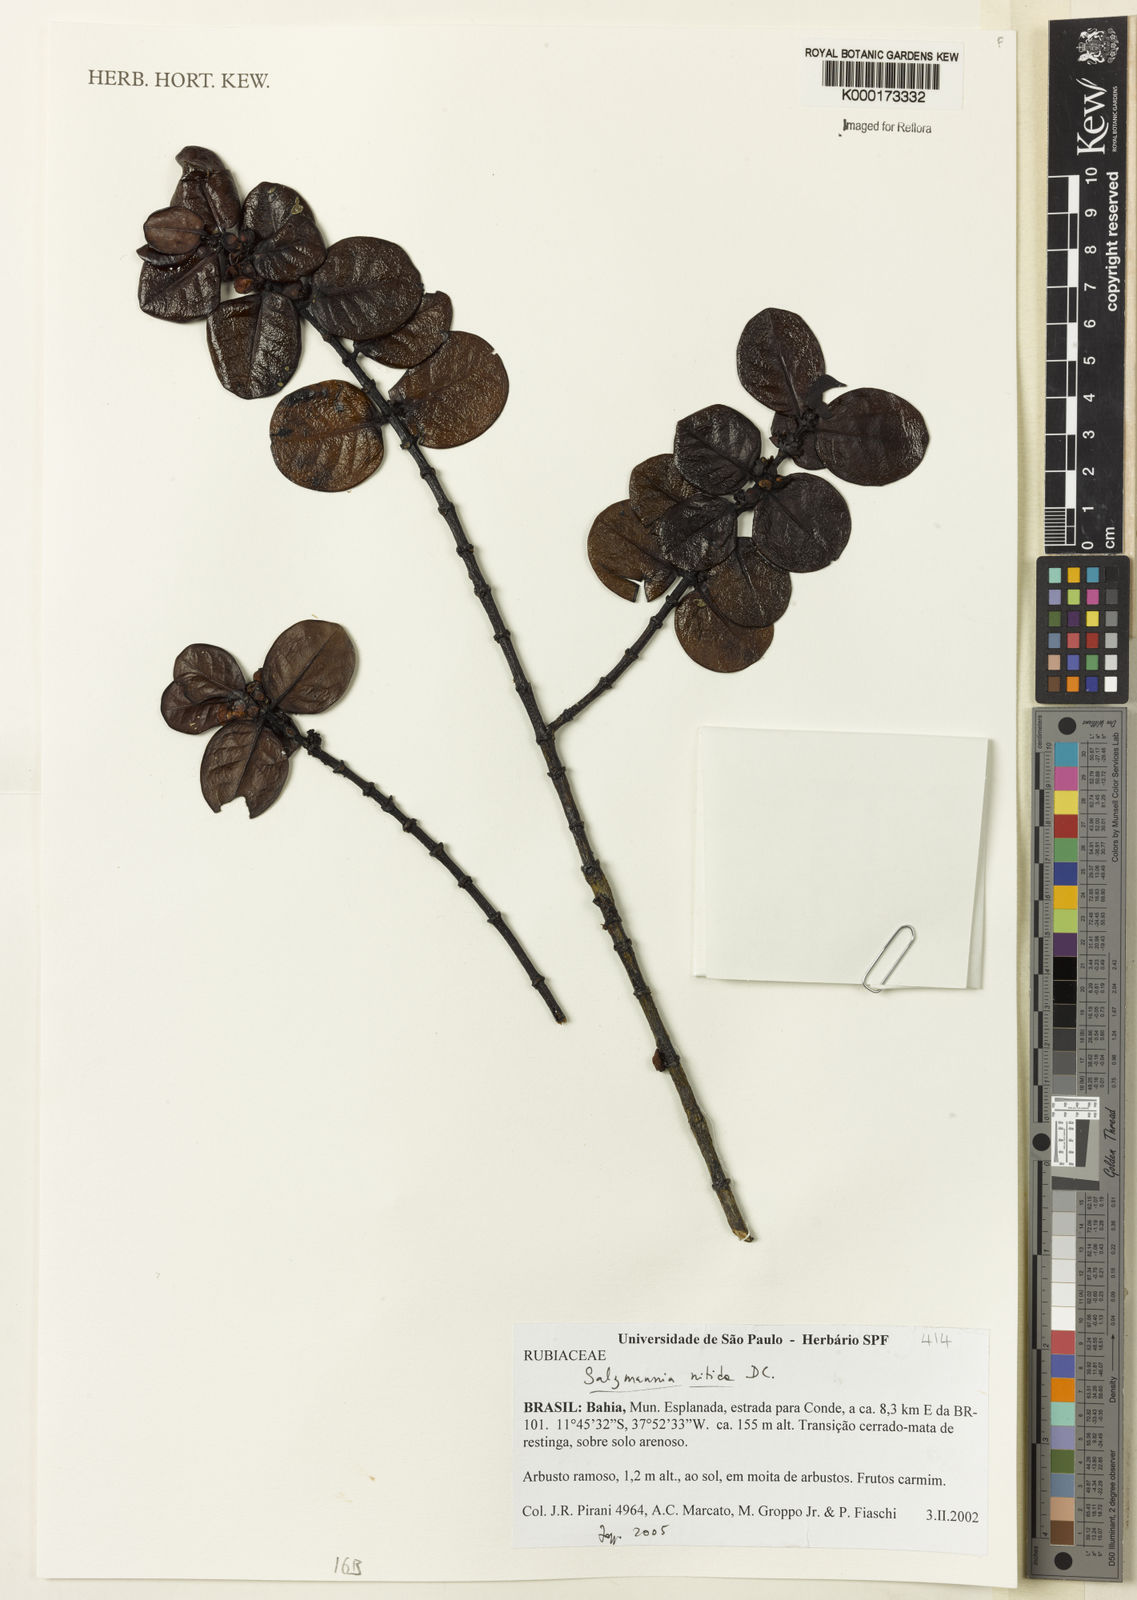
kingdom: Plantae
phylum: Tracheophyta
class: Magnoliopsida
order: Gentianales
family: Rubiaceae
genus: Salzmannia
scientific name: Salzmannia nitida
